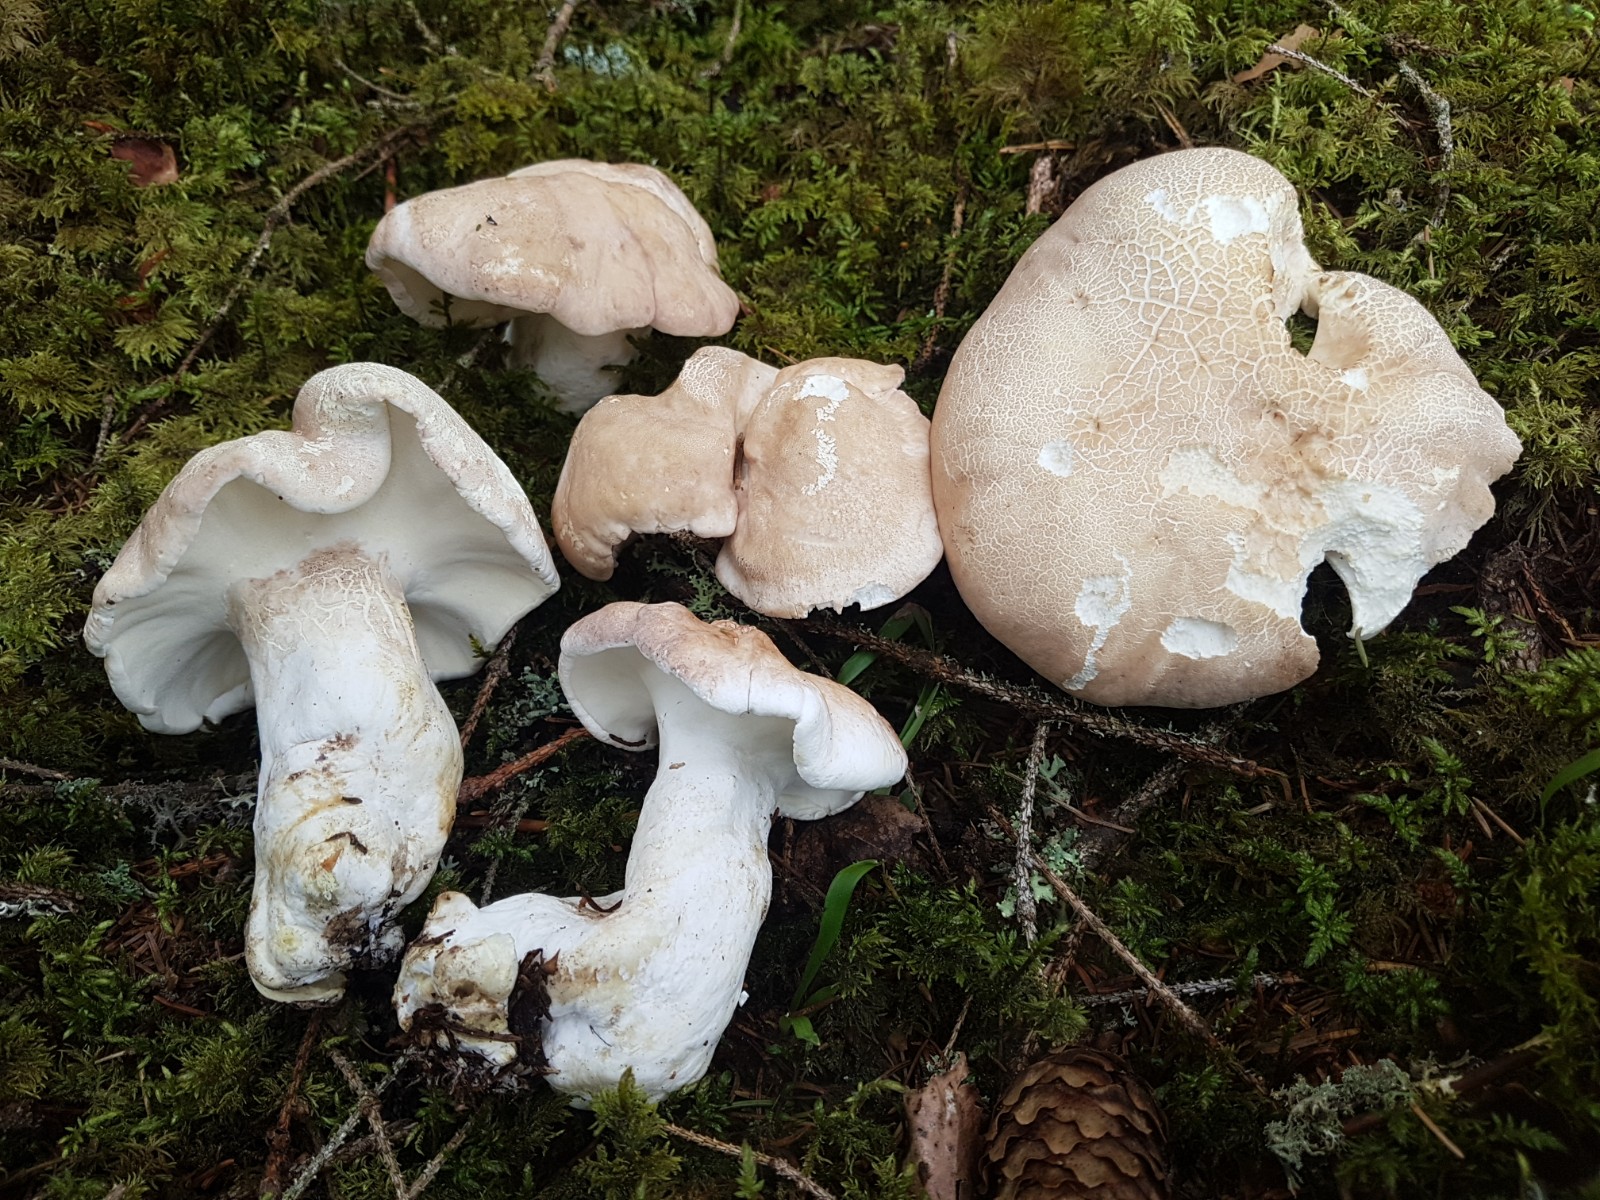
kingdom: Fungi
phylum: Basidiomycota
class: Agaricomycetes
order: Russulales
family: Albatrellaceae
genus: Albatrellus
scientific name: Albatrellus ovinus
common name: hvidlig fåreporesvamp
